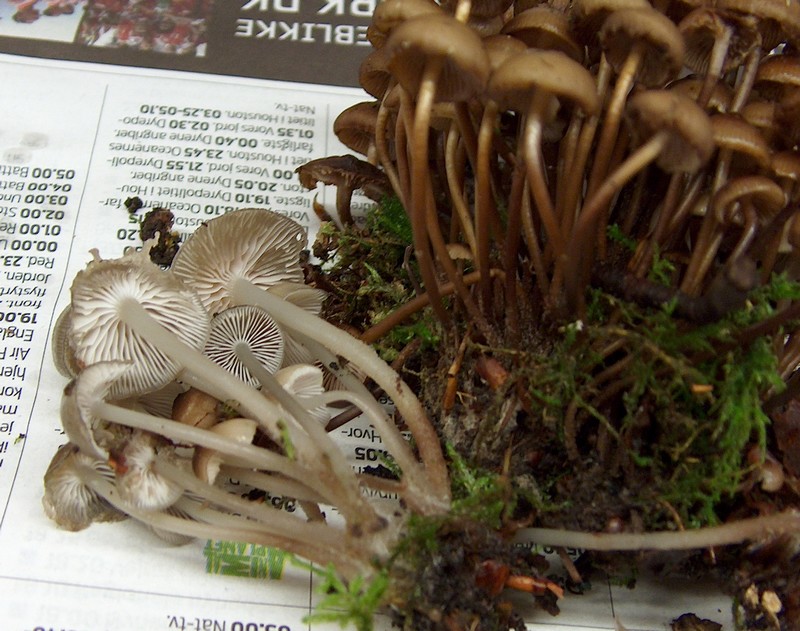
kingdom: Fungi
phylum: Basidiomycota
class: Agaricomycetes
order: Agaricales
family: Mycenaceae
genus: Mycena
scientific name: Mycena tintinnabulum
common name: vinter-huesvamp
